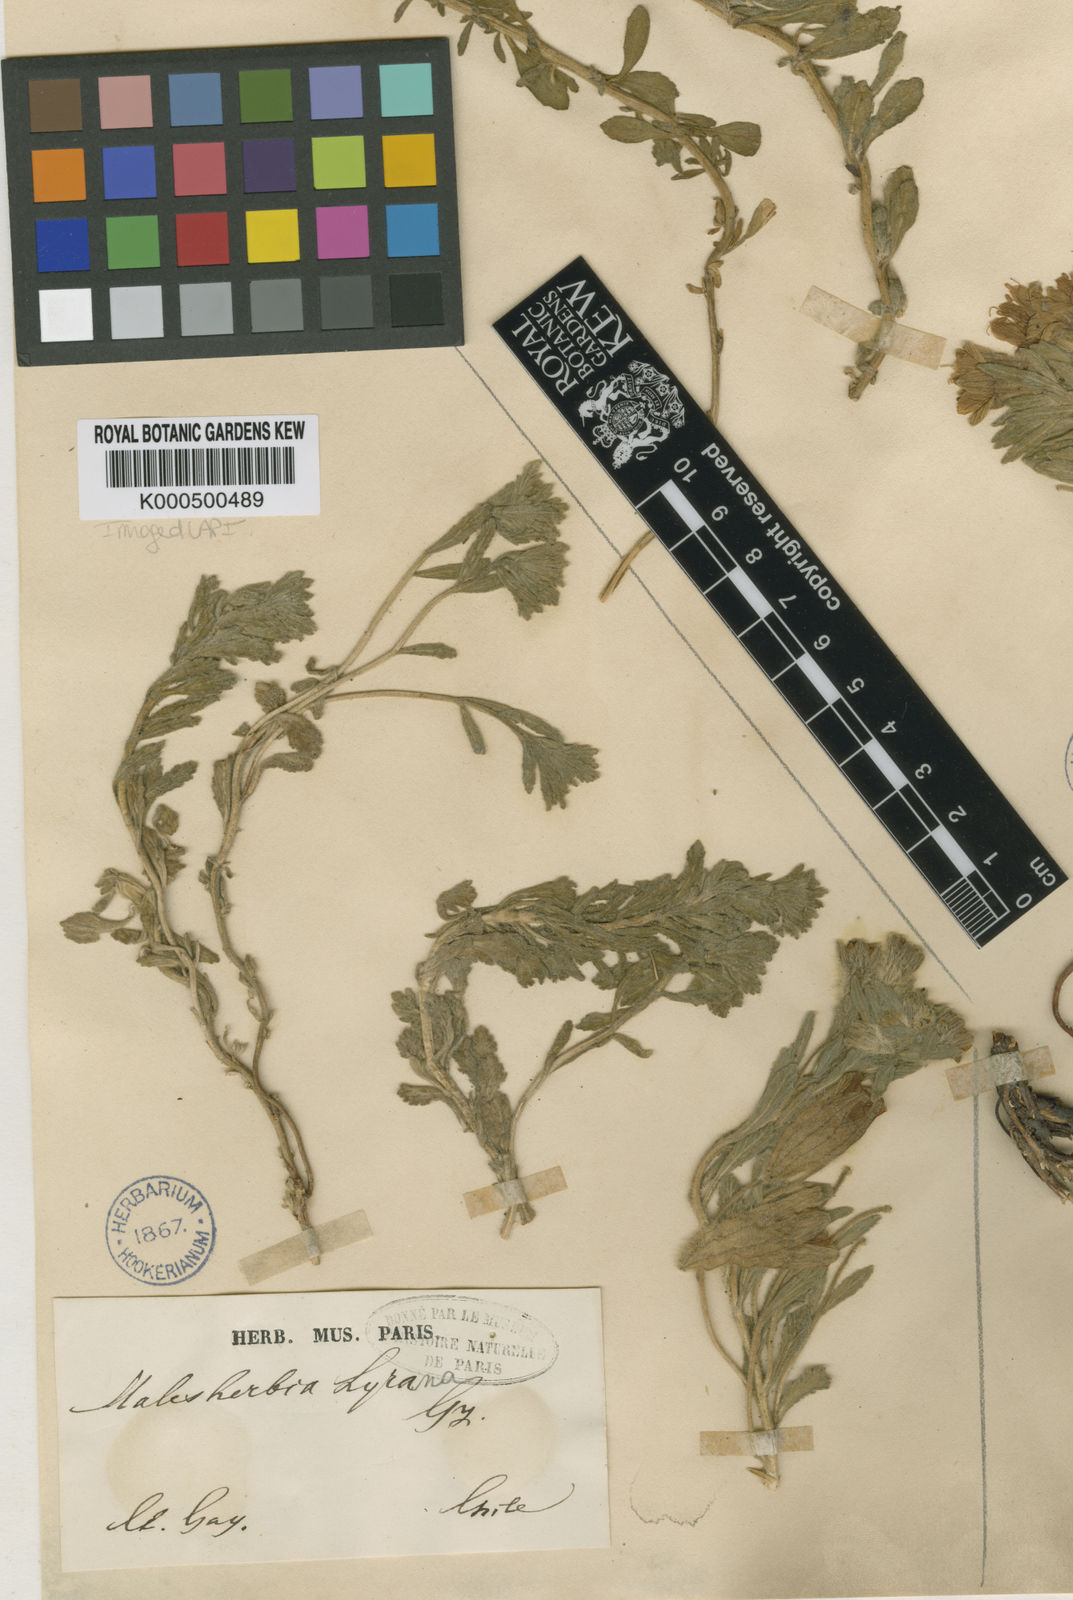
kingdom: Plantae
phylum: Tracheophyta
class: Magnoliopsida
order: Malpighiales
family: Malesherbiaceae
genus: Malesherbia
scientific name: Malesherbia lirana
